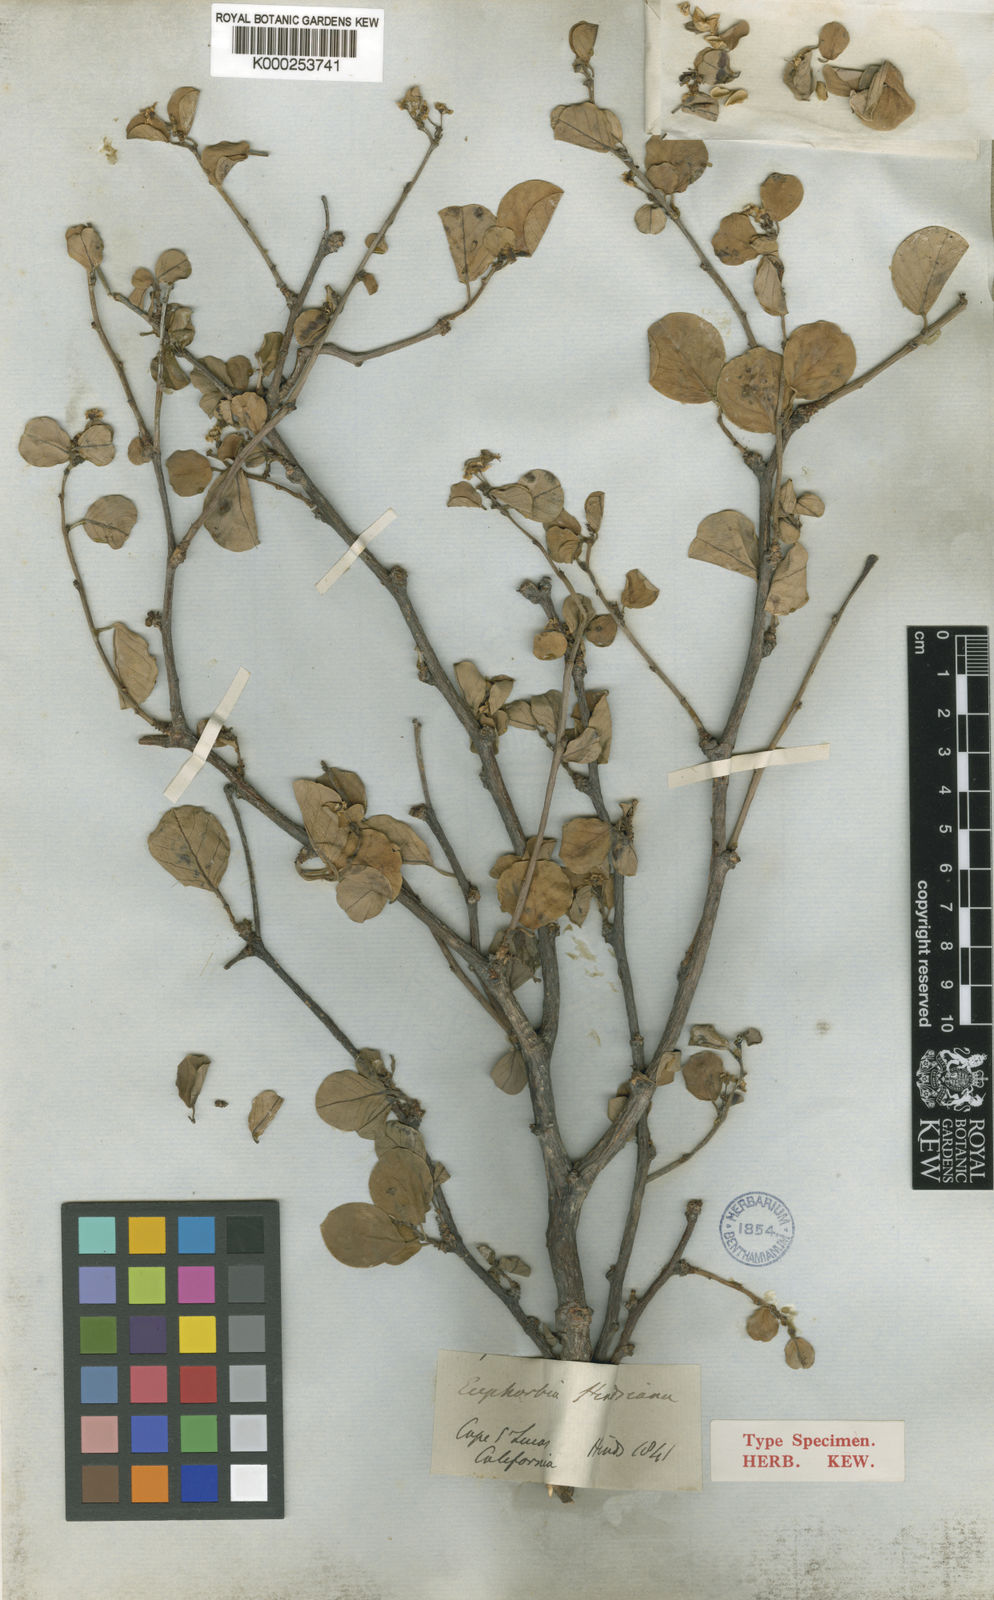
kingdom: Plantae
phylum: Tracheophyta
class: Magnoliopsida
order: Malpighiales
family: Euphorbiaceae
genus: Euphorbia
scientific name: Euphorbia hindsiana
